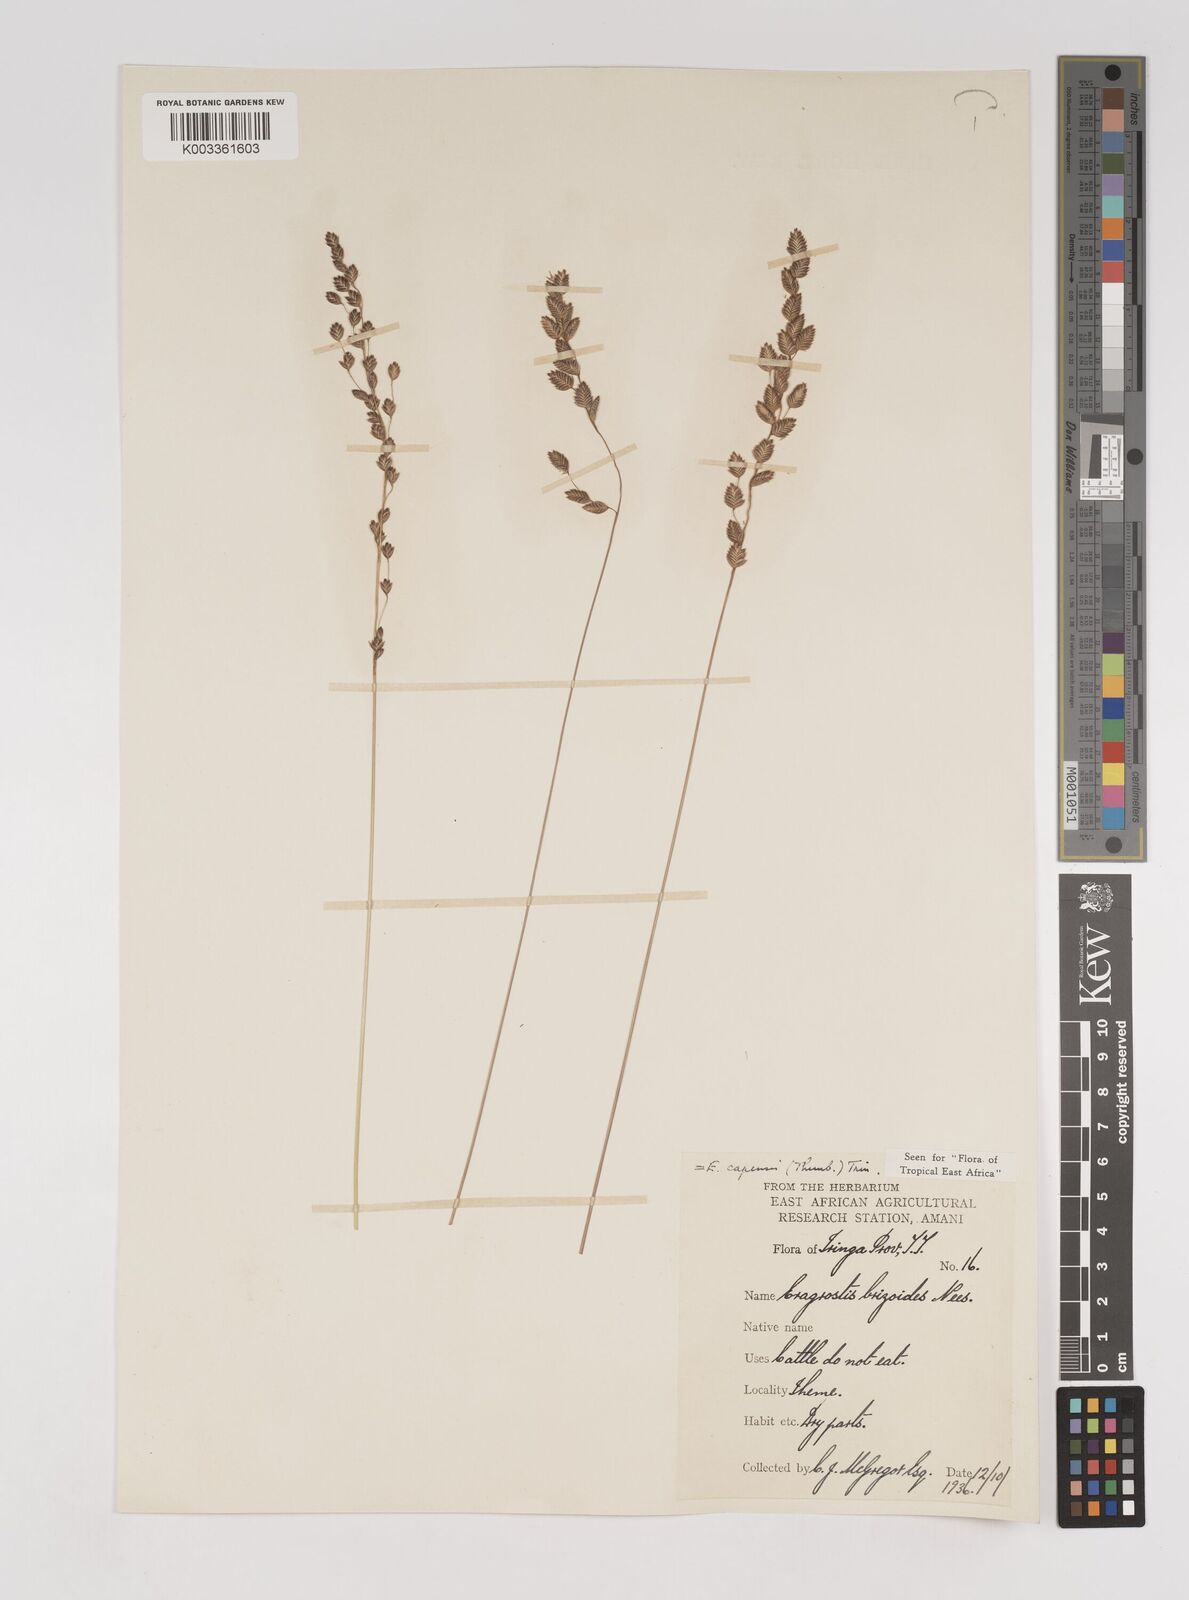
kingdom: Plantae
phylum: Tracheophyta
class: Liliopsida
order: Poales
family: Poaceae
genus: Eragrostis
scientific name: Eragrostis capensis
